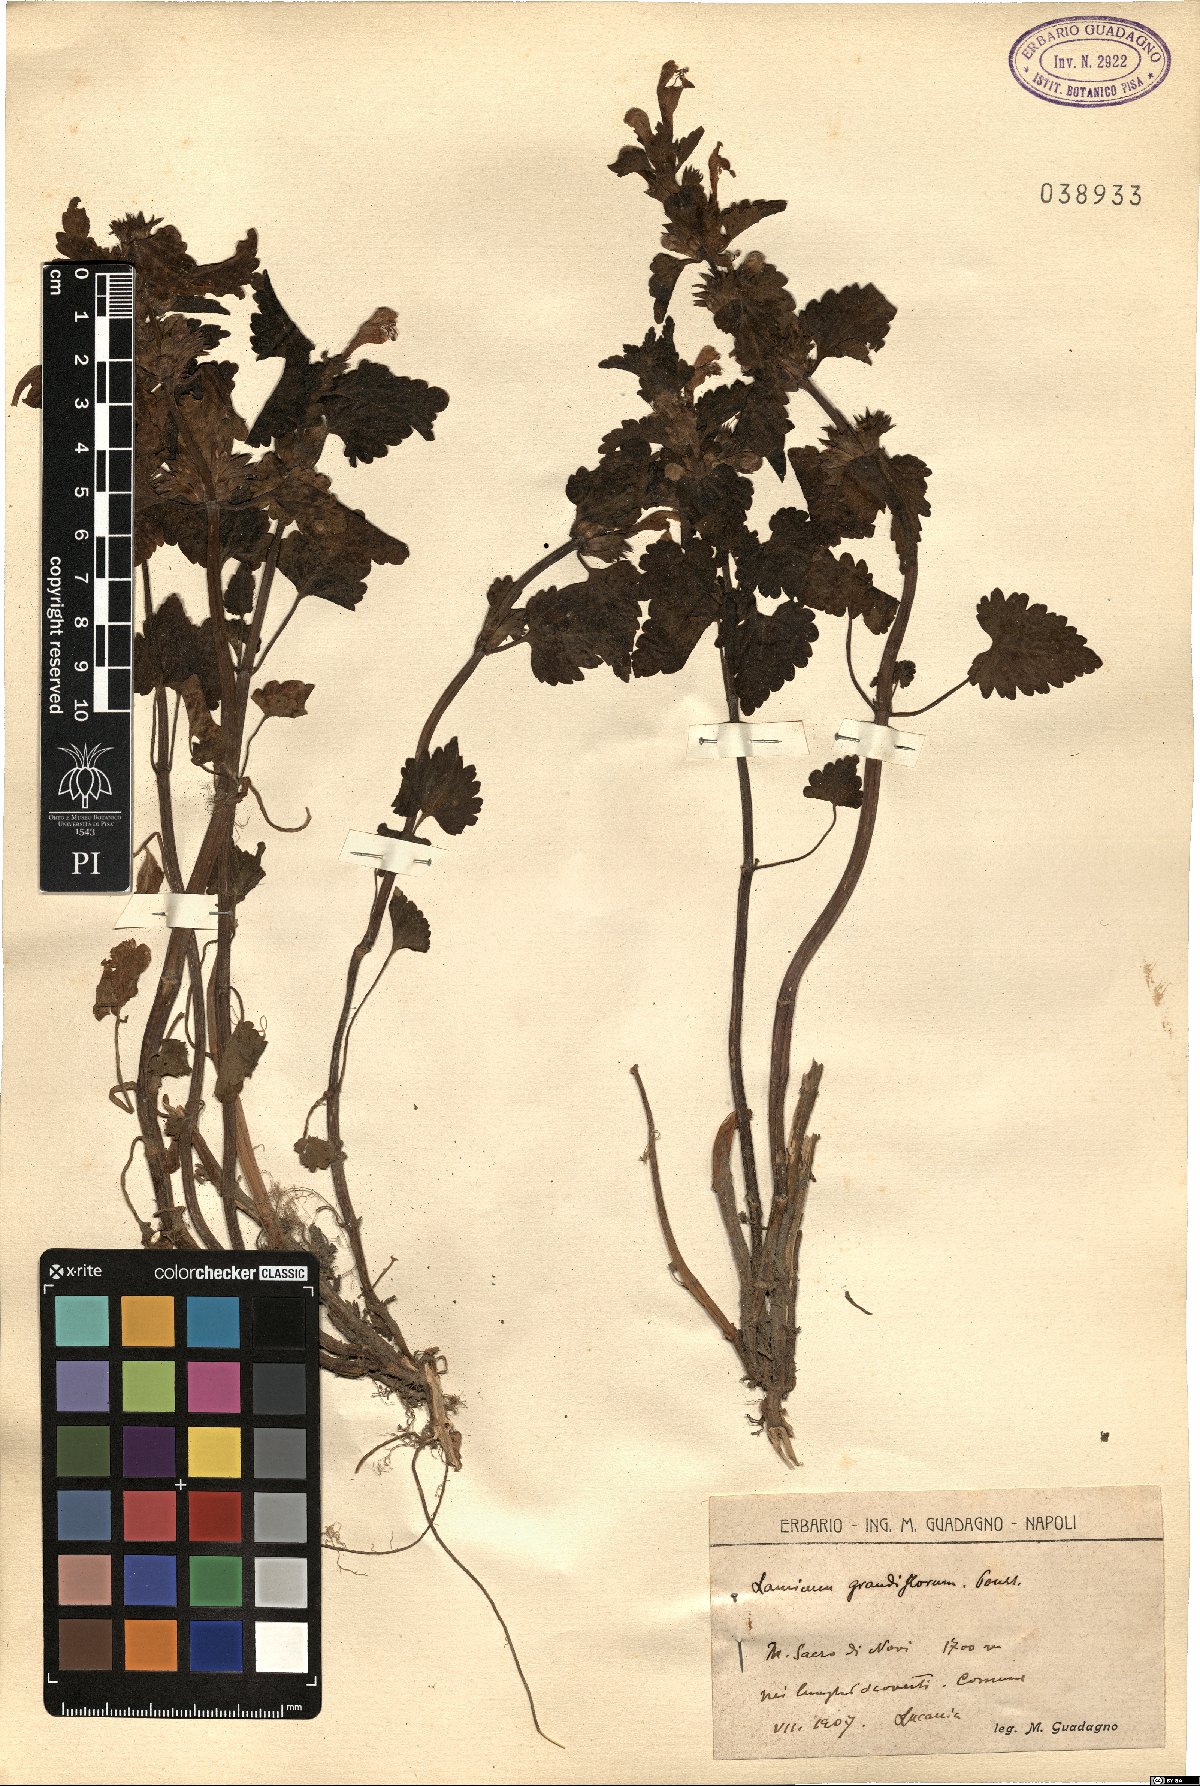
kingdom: Plantae
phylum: Tracheophyta
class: Magnoliopsida
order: Lamiales
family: Lamiaceae
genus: Lamium
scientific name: Lamium garganicum
